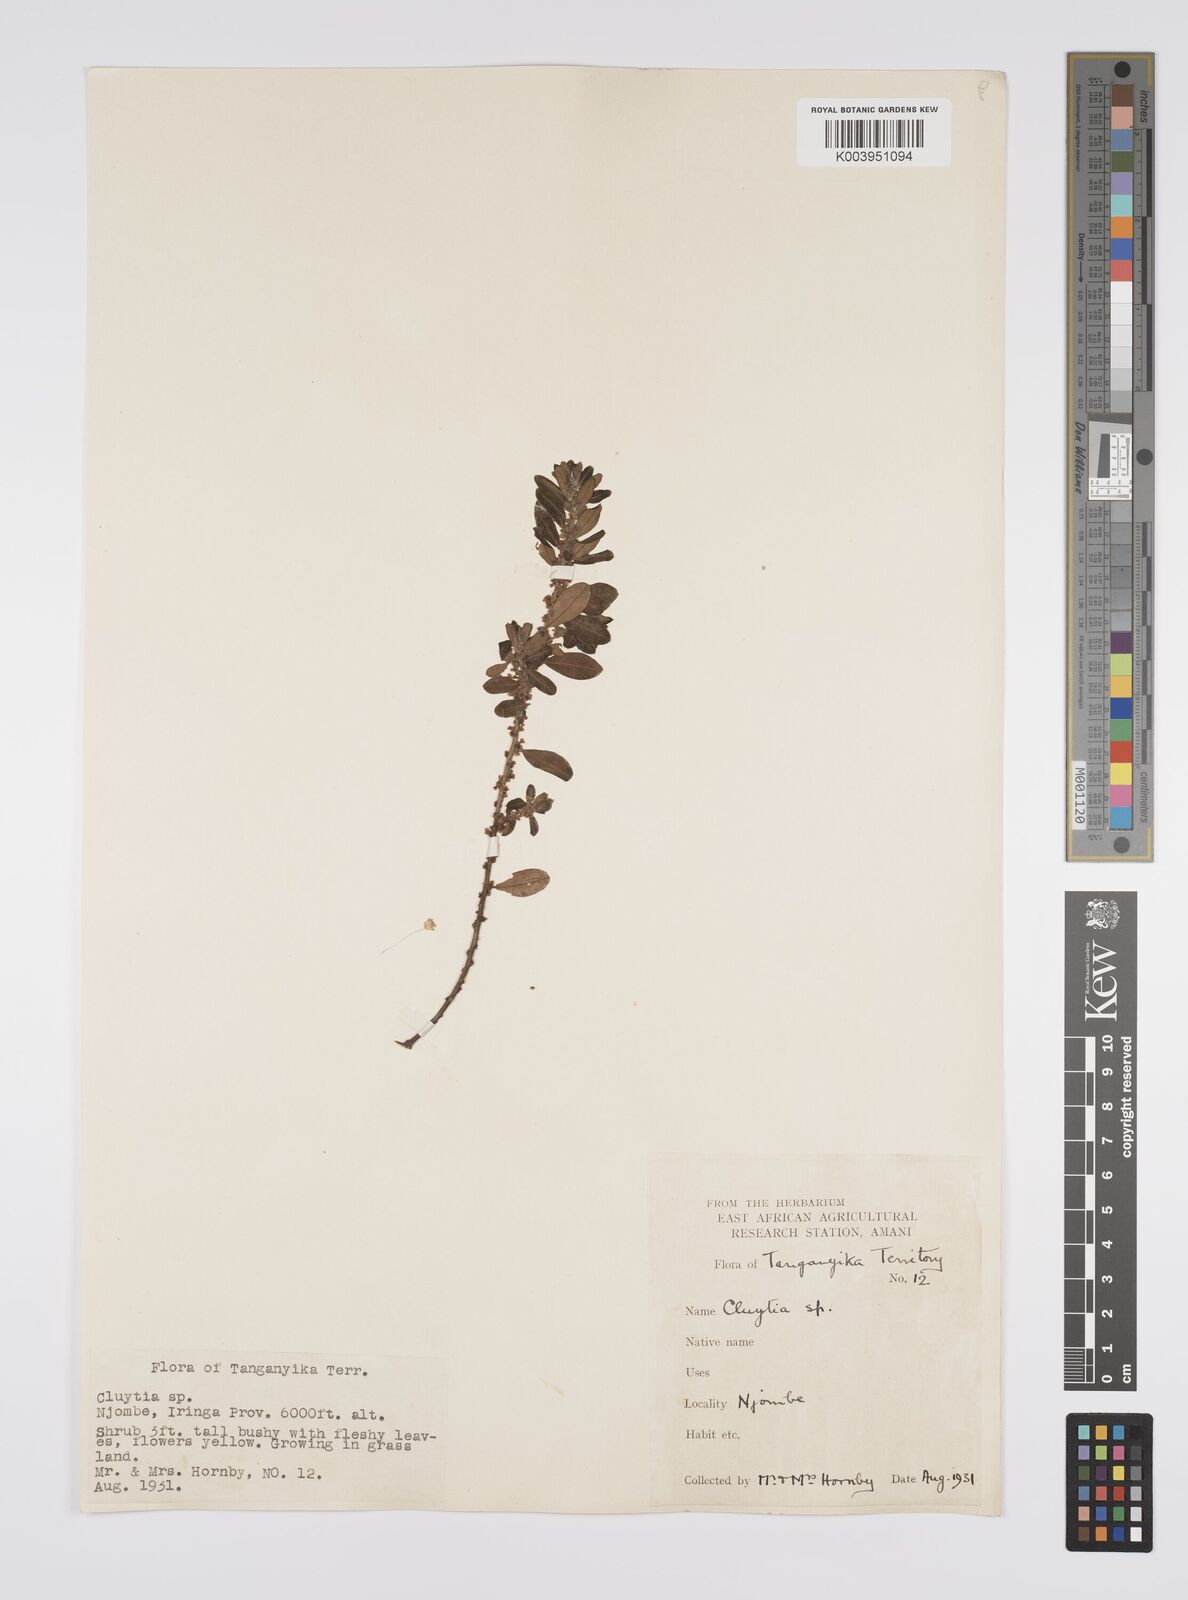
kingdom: Plantae
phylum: Tracheophyta
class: Magnoliopsida
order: Malpighiales
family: Peraceae
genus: Clutia
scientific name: Clutia
